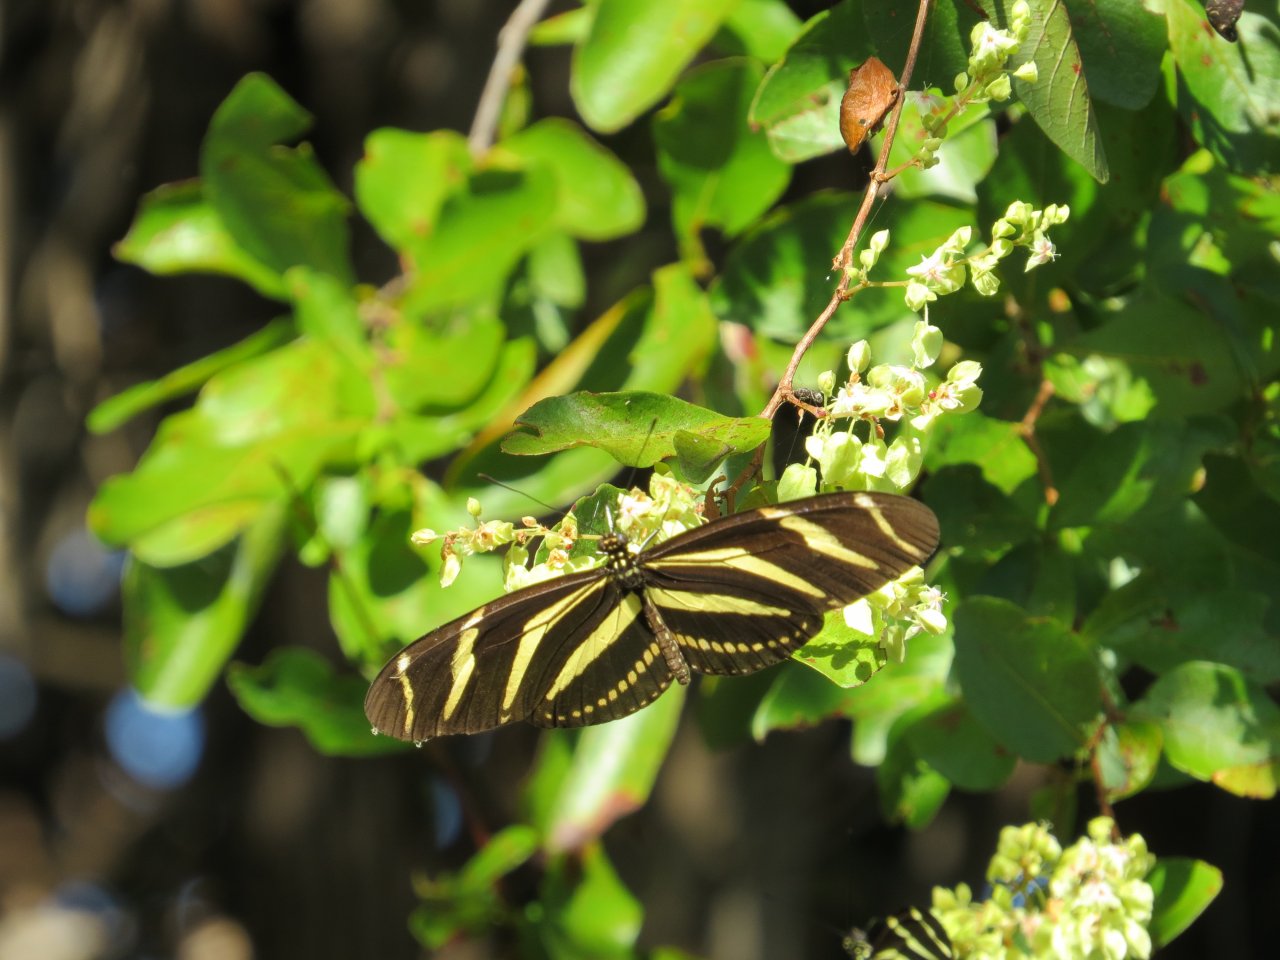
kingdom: Animalia
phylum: Arthropoda
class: Insecta
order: Lepidoptera
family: Nymphalidae
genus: Heliconius
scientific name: Heliconius charithonia
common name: Zebra Longwing
